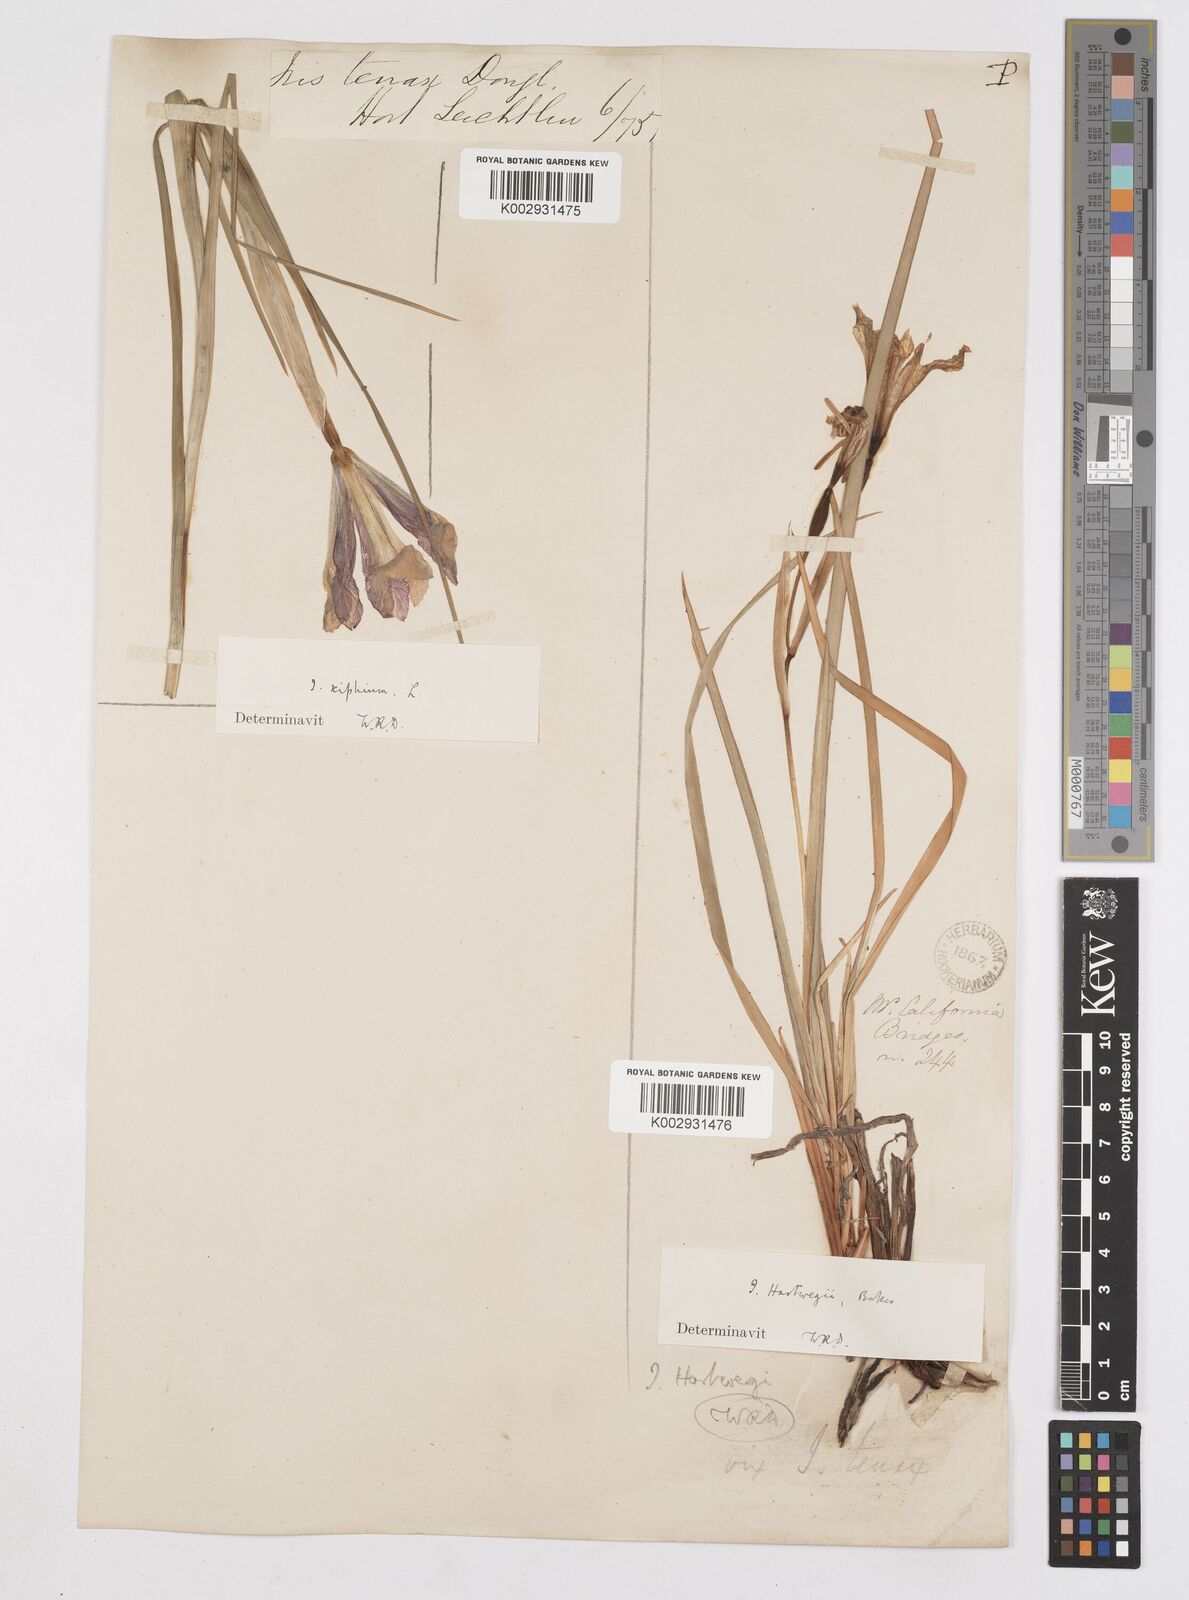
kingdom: Plantae
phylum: Tracheophyta
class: Liliopsida
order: Asparagales
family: Iridaceae
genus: Iris
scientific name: Iris hartwegii
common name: Sierra iris
